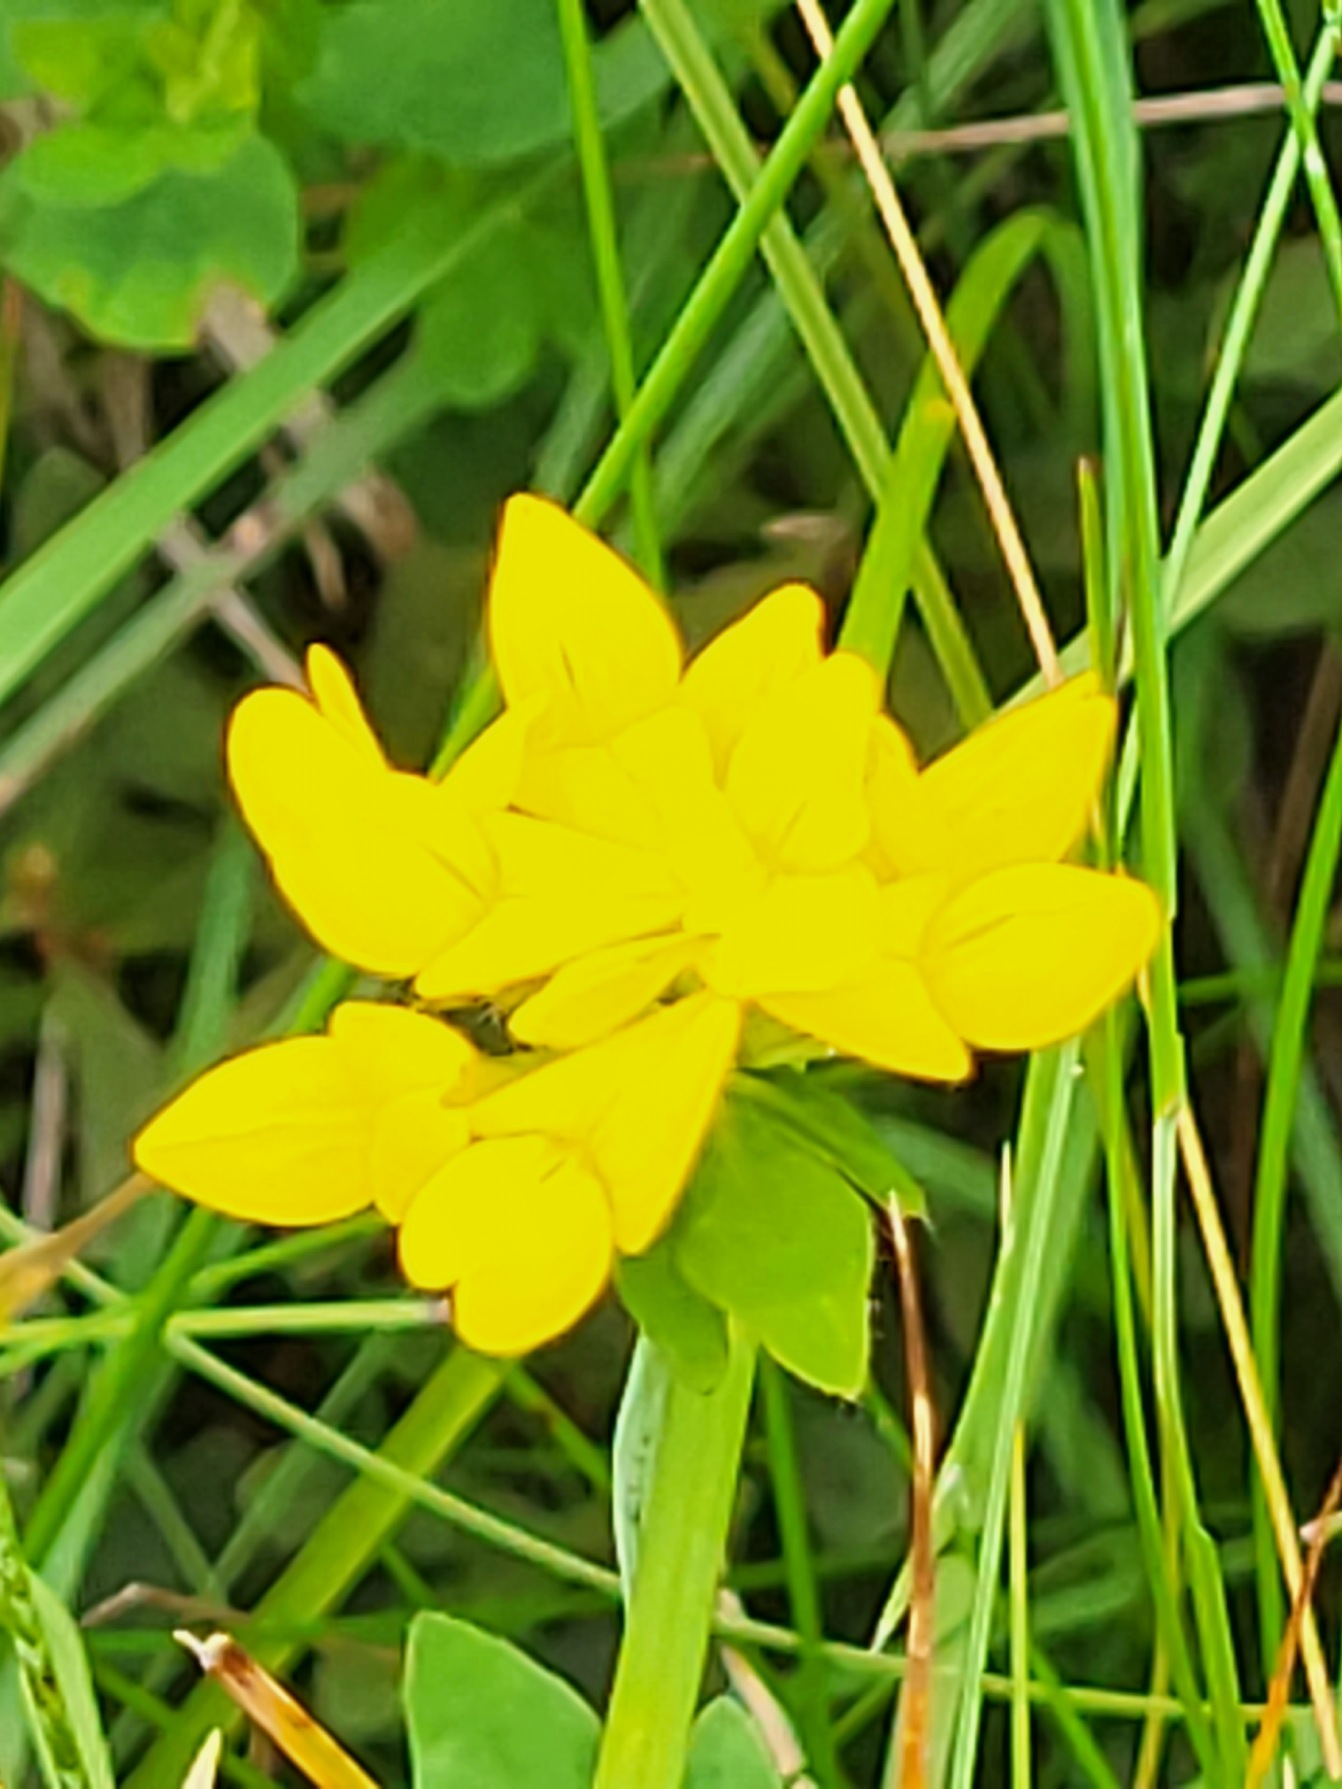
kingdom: Plantae
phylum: Tracheophyta
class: Magnoliopsida
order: Fabales
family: Fabaceae
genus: Lotus
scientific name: Lotus
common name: Kællingetandslægten
